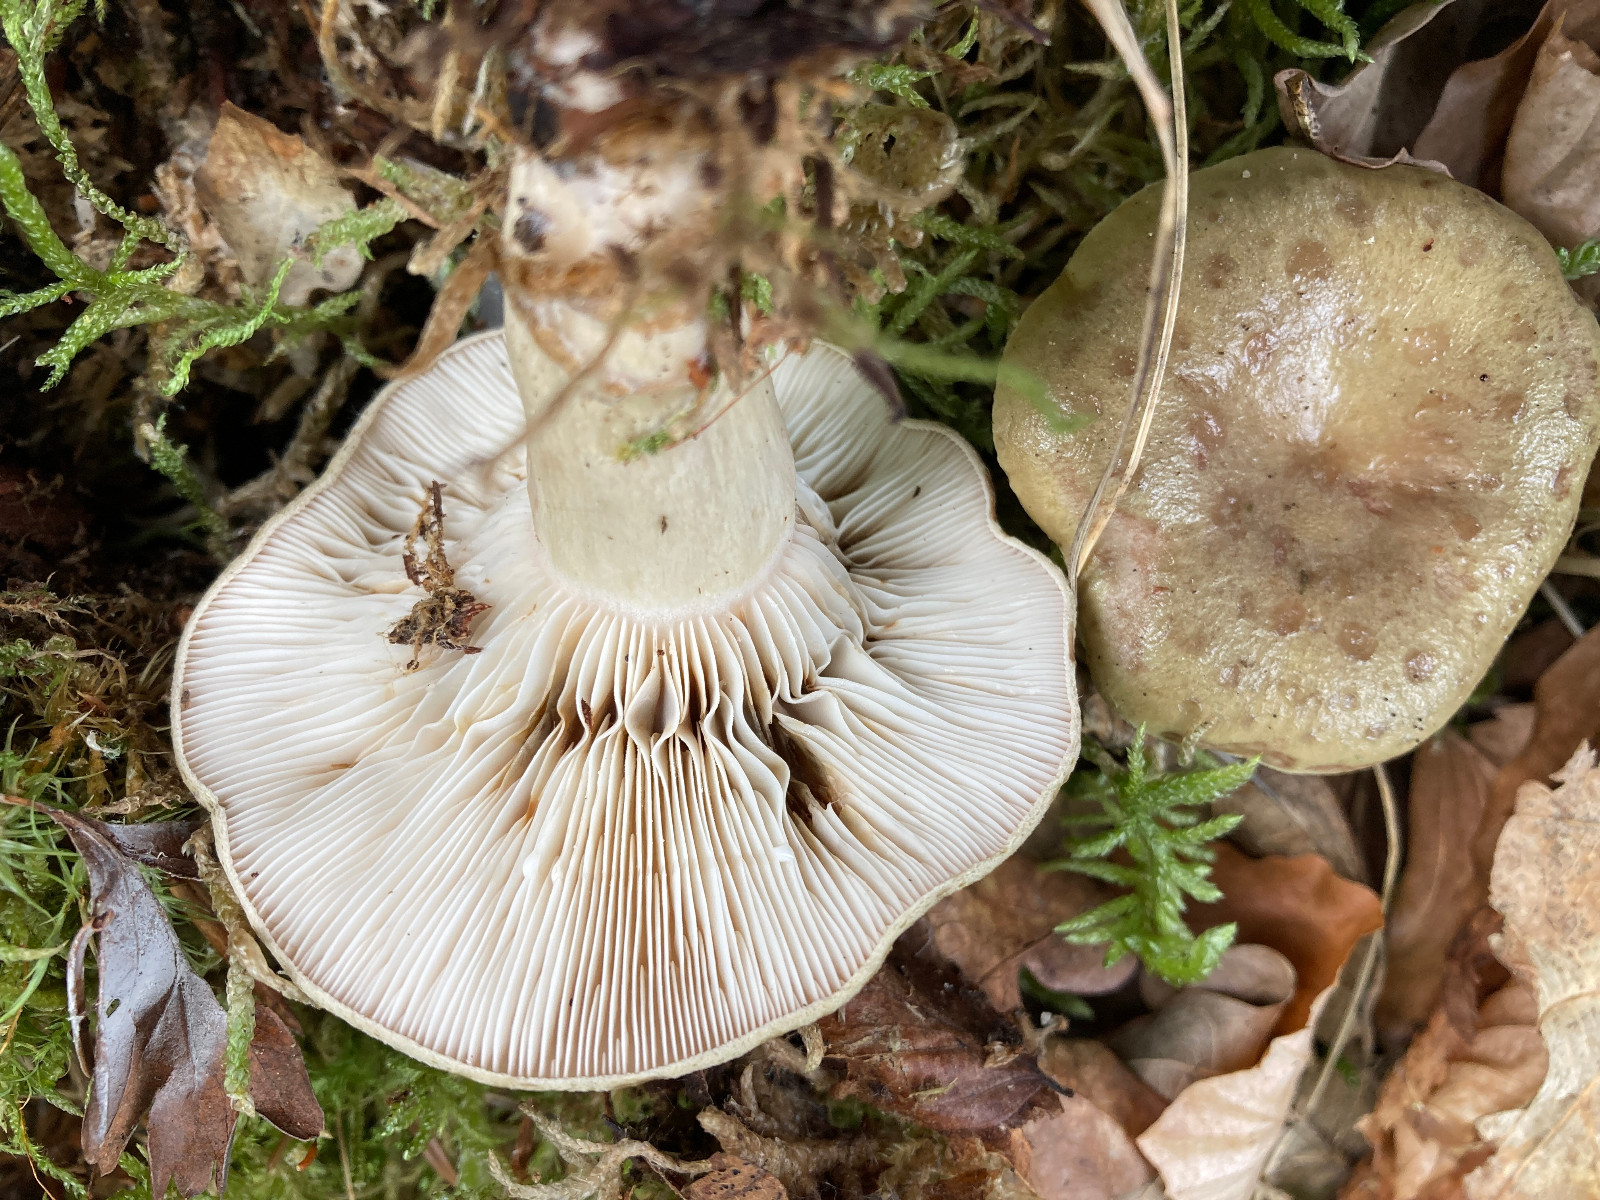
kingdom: Fungi
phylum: Basidiomycota
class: Agaricomycetes
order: Russulales
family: Russulaceae
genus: Lactarius
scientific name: Lactarius blennius
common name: dråbeplettet mælkehat
